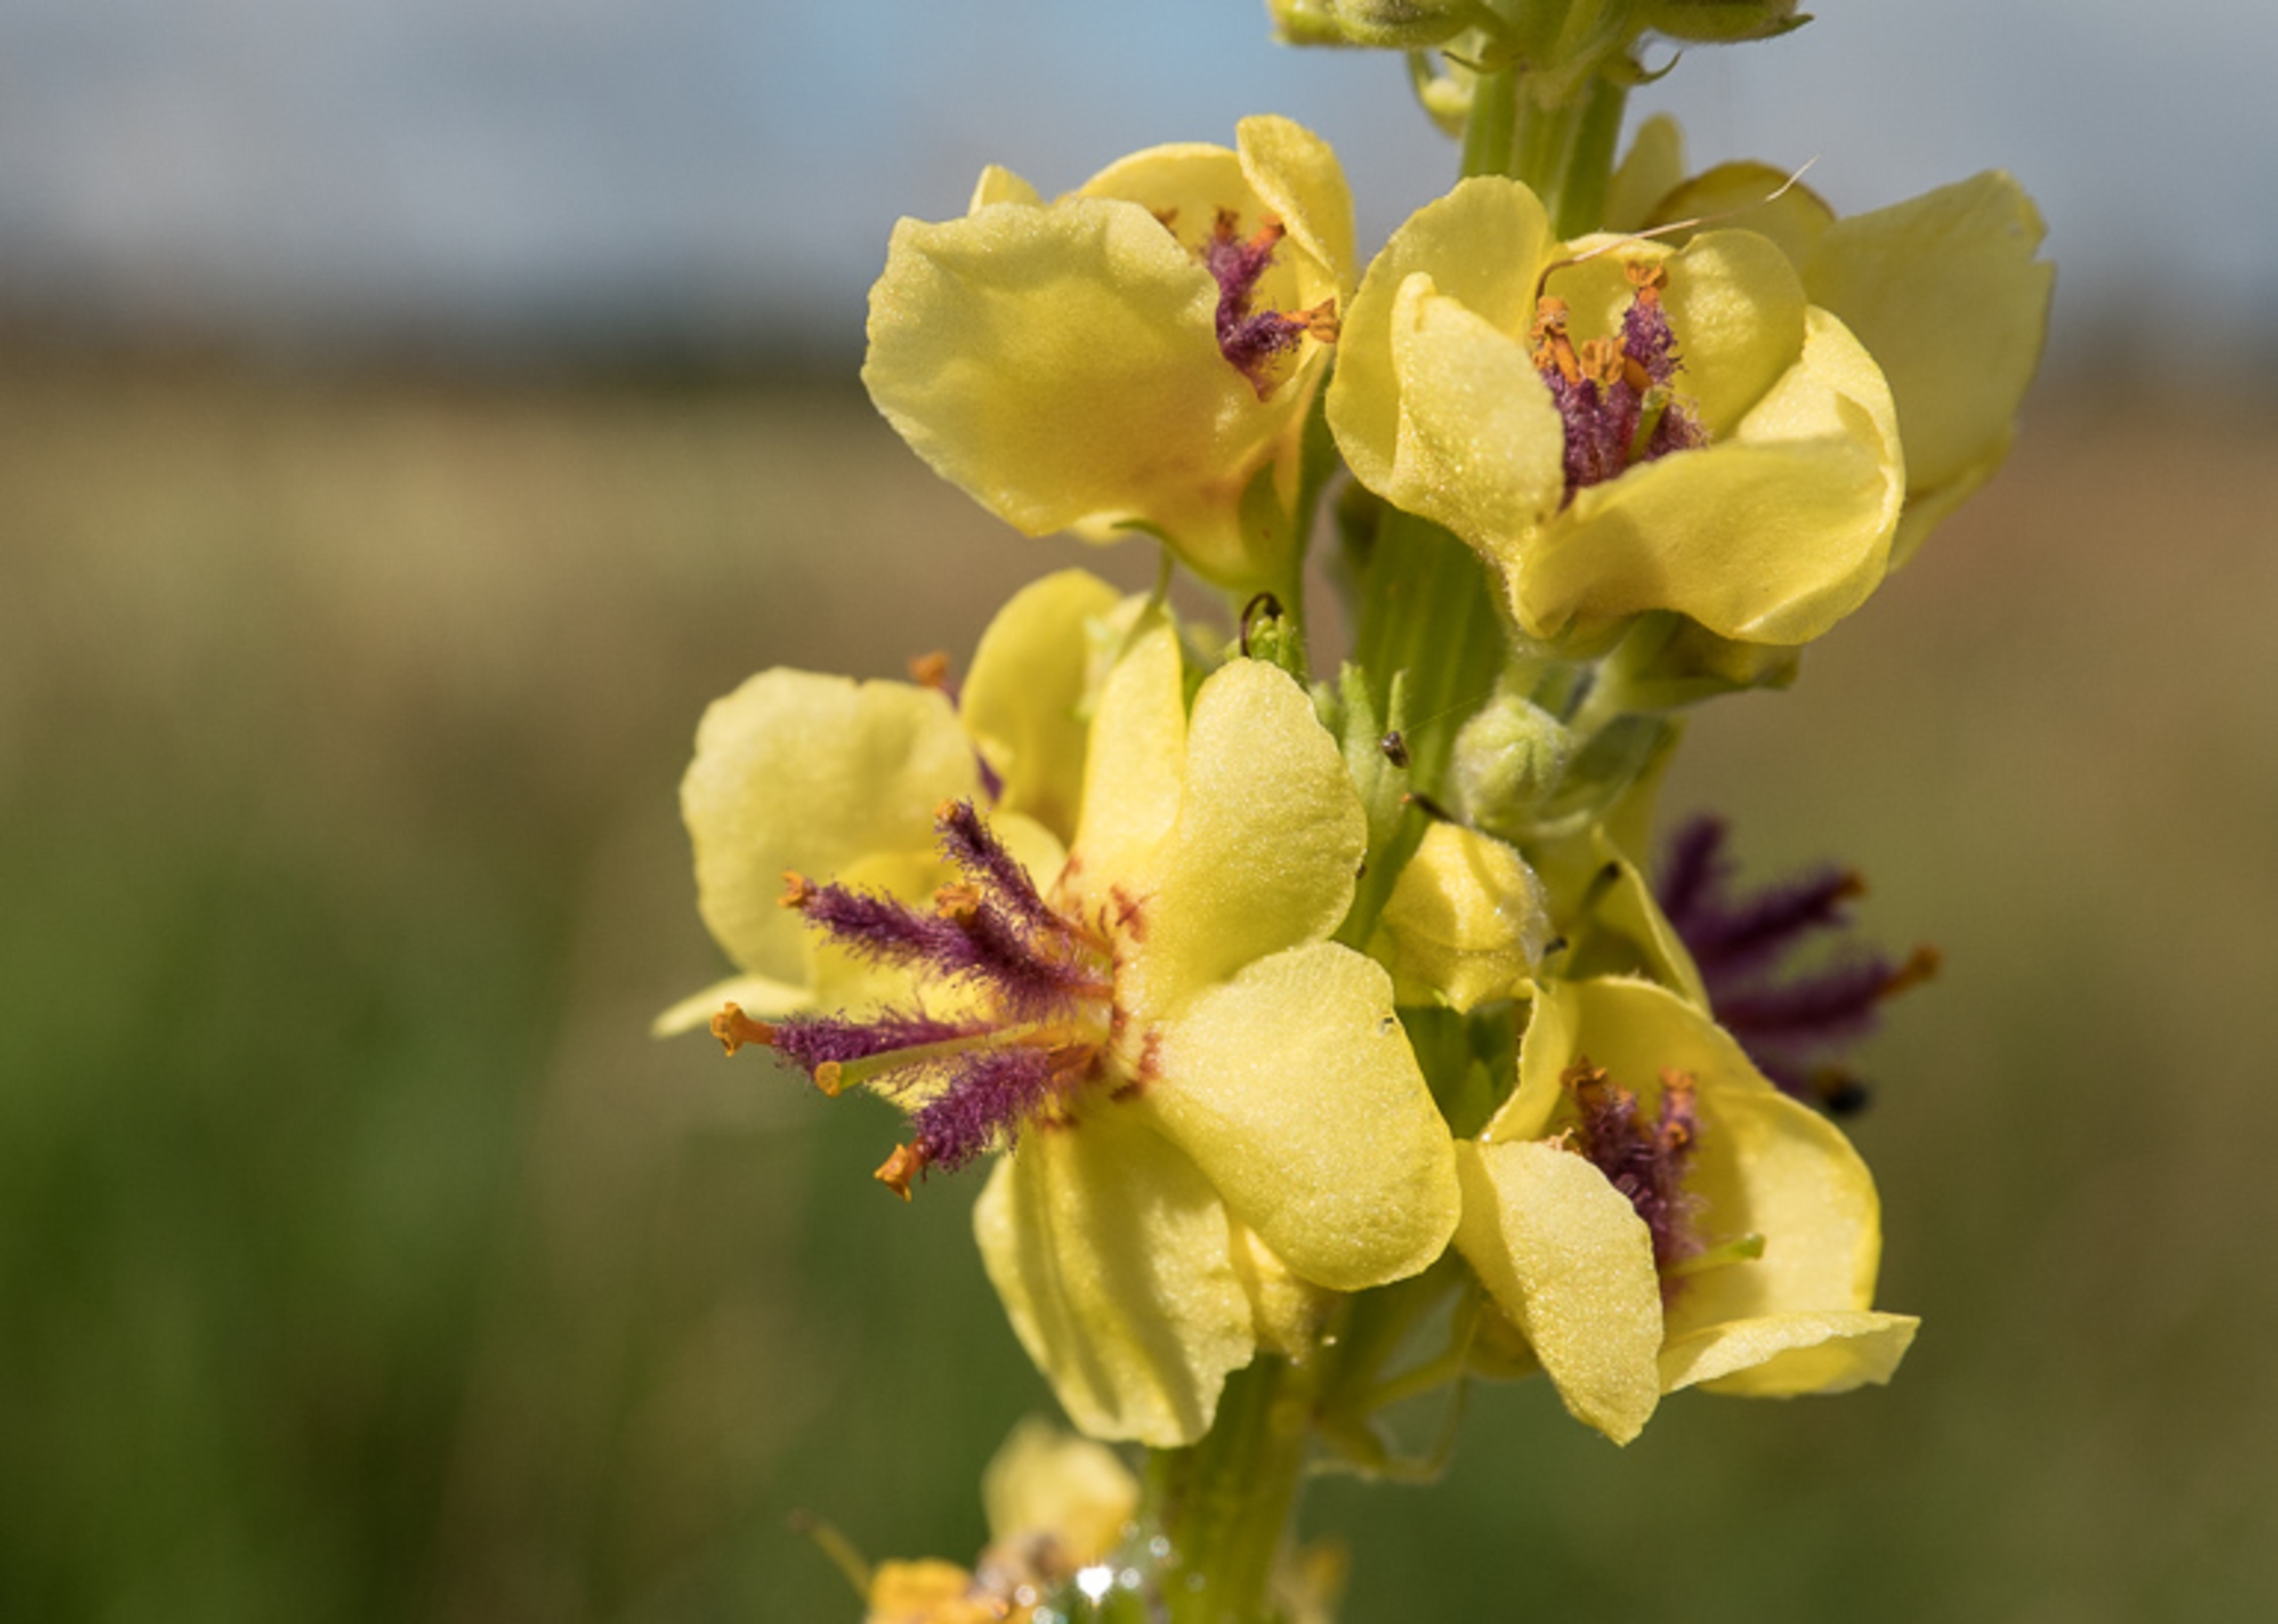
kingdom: Plantae
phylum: Tracheophyta
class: Magnoliopsida
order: Lamiales
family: Scrophulariaceae
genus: Verbascum
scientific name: Verbascum nigrum
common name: Mørk kongelys
